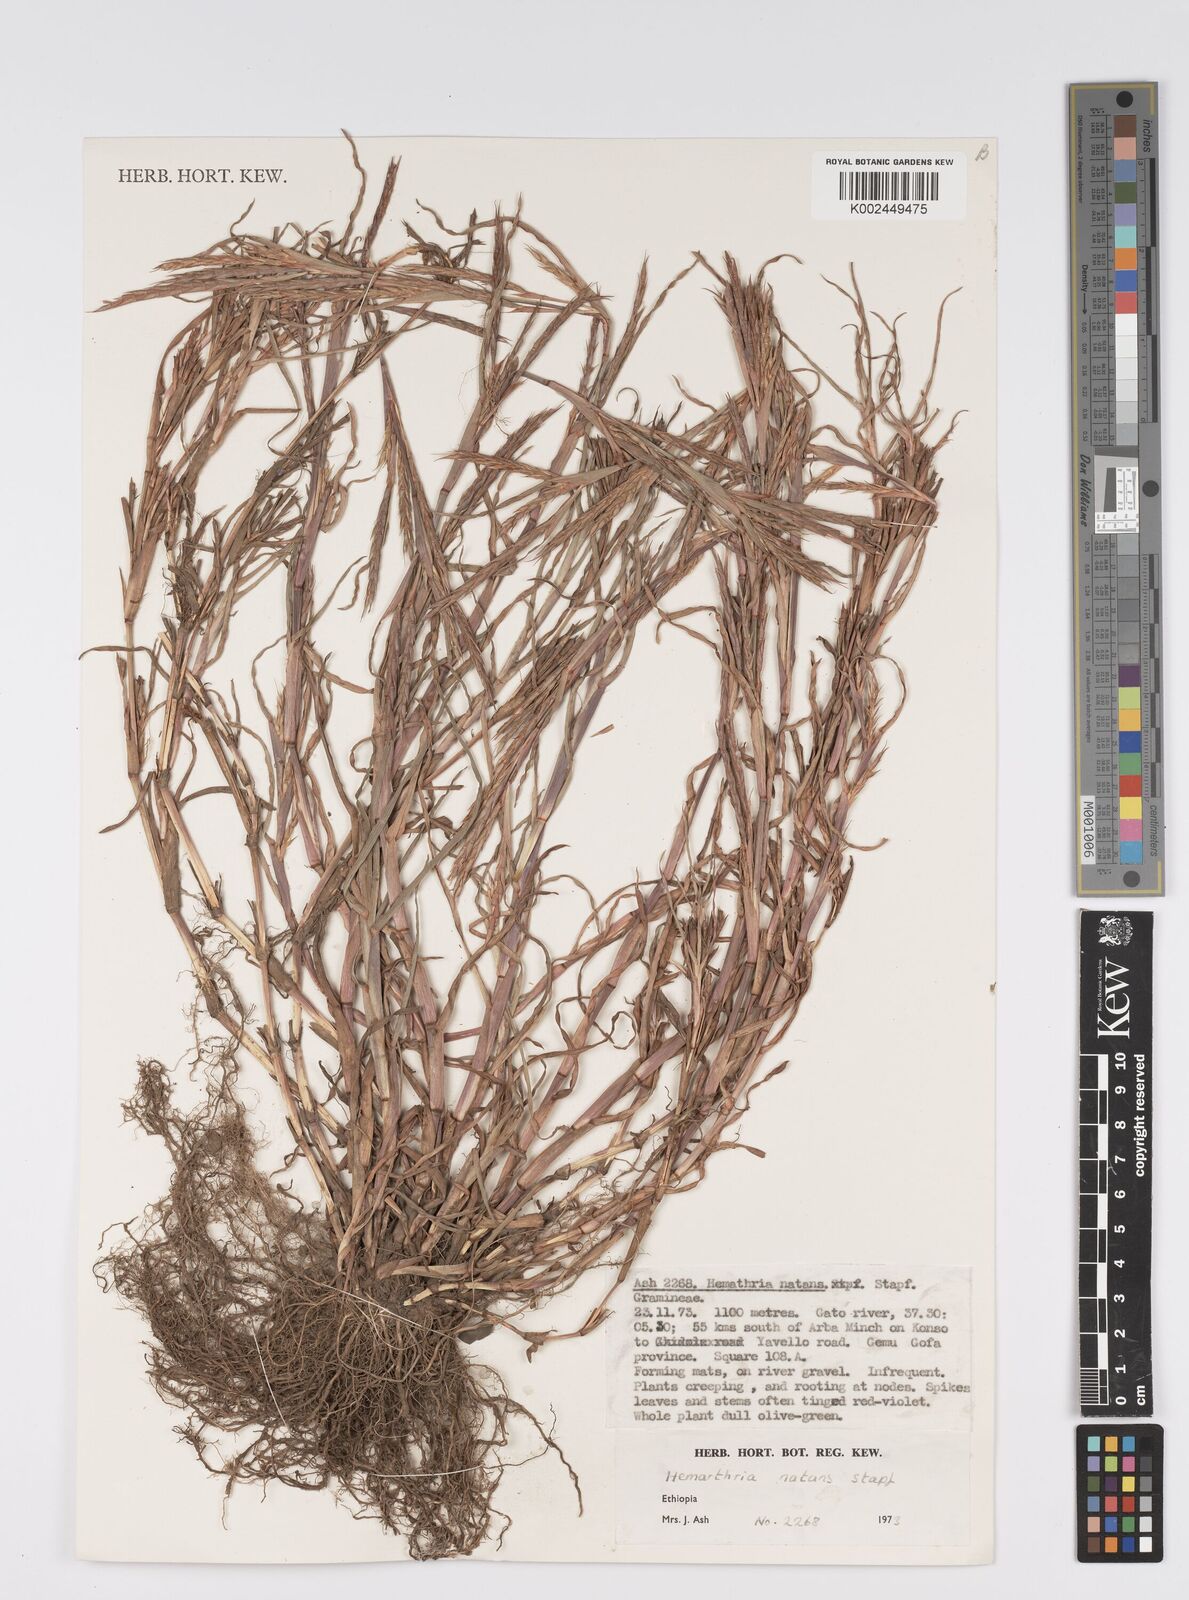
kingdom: Plantae
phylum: Tracheophyta
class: Liliopsida
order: Poales
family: Poaceae
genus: Hemarthria
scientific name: Hemarthria natans
